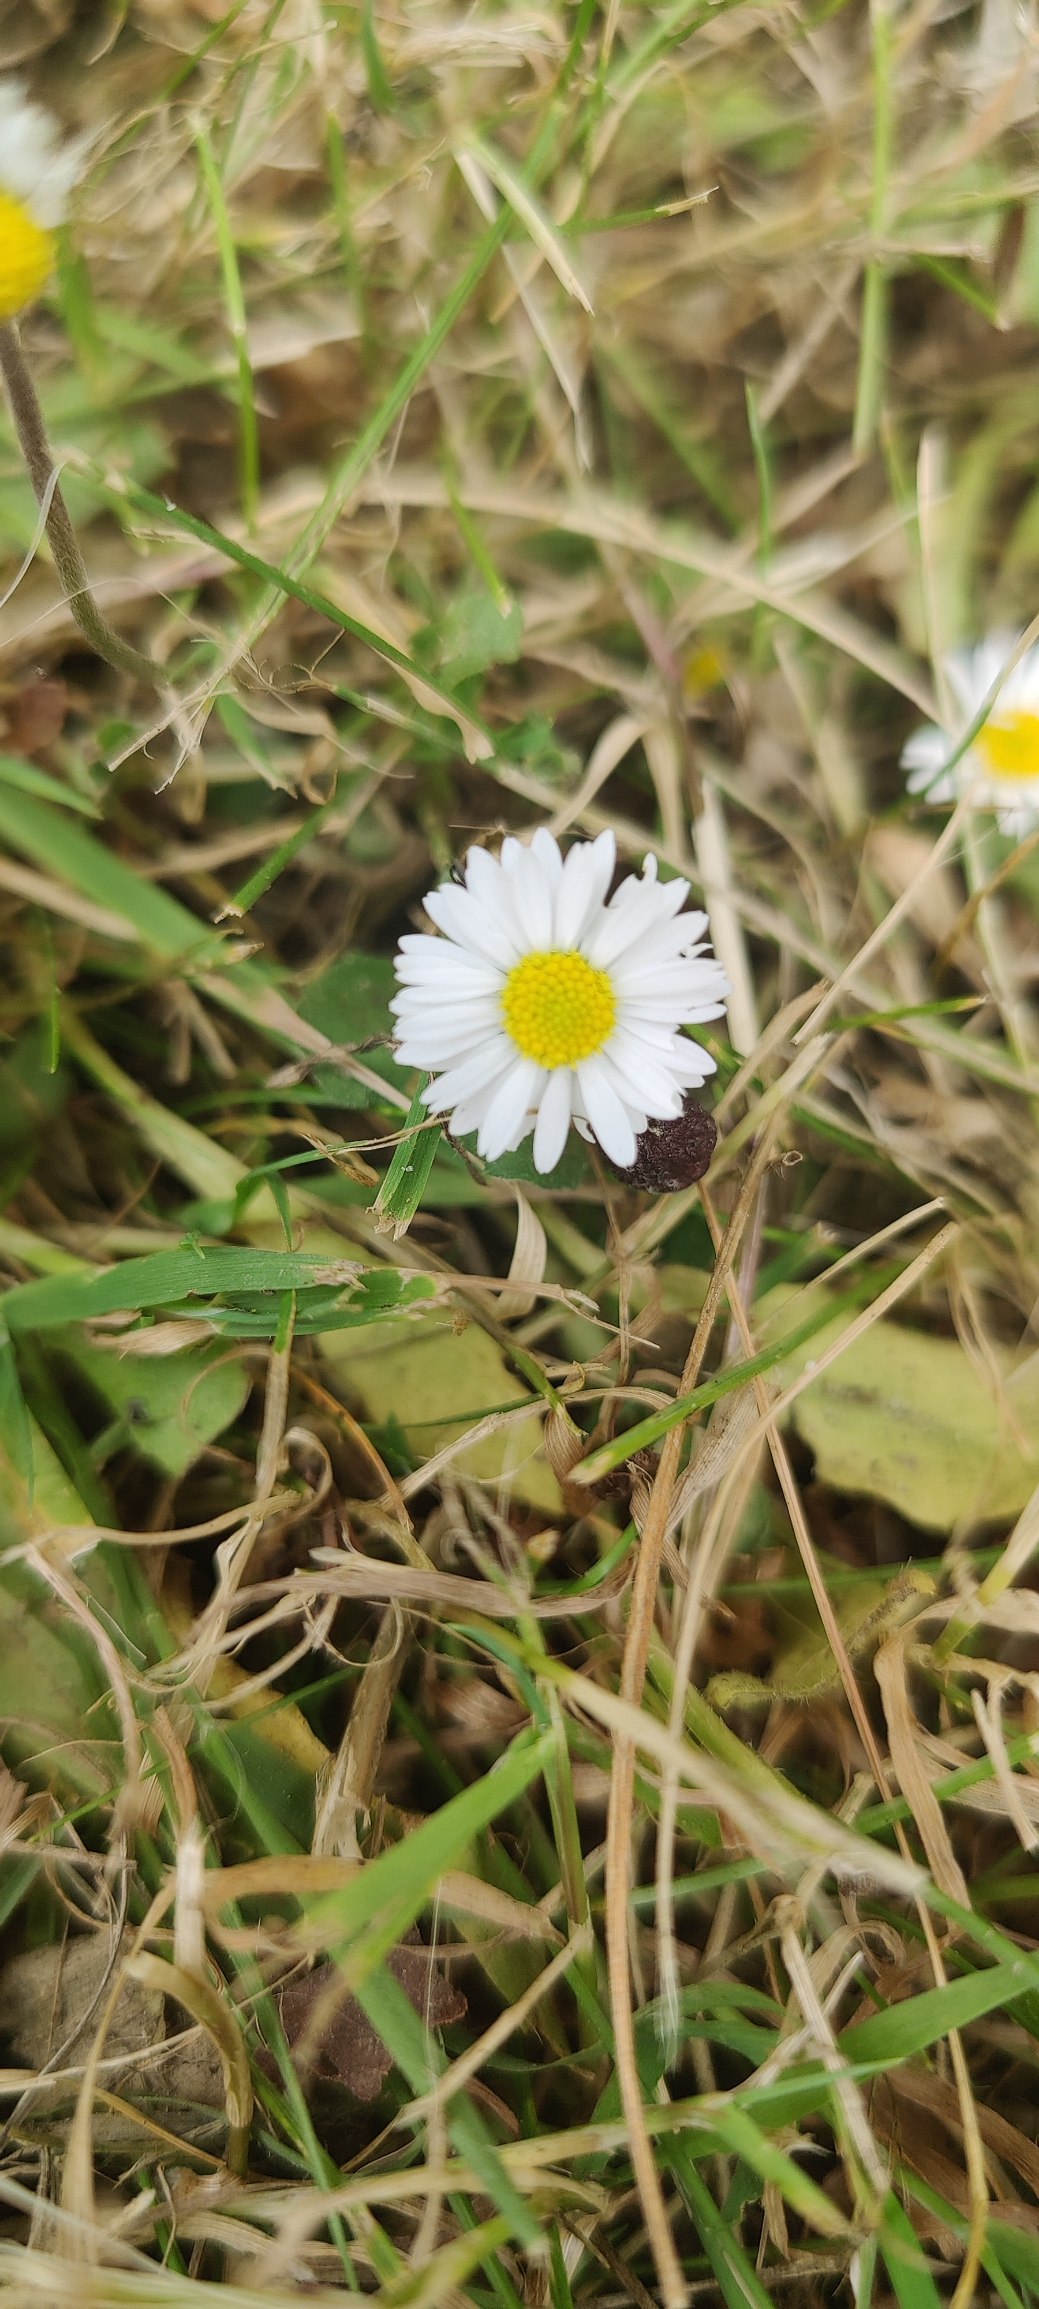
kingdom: Plantae
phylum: Tracheophyta
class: Magnoliopsida
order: Asterales
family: Asteraceae
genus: Bellis
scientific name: Bellis perennis
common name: Tusindfryd
